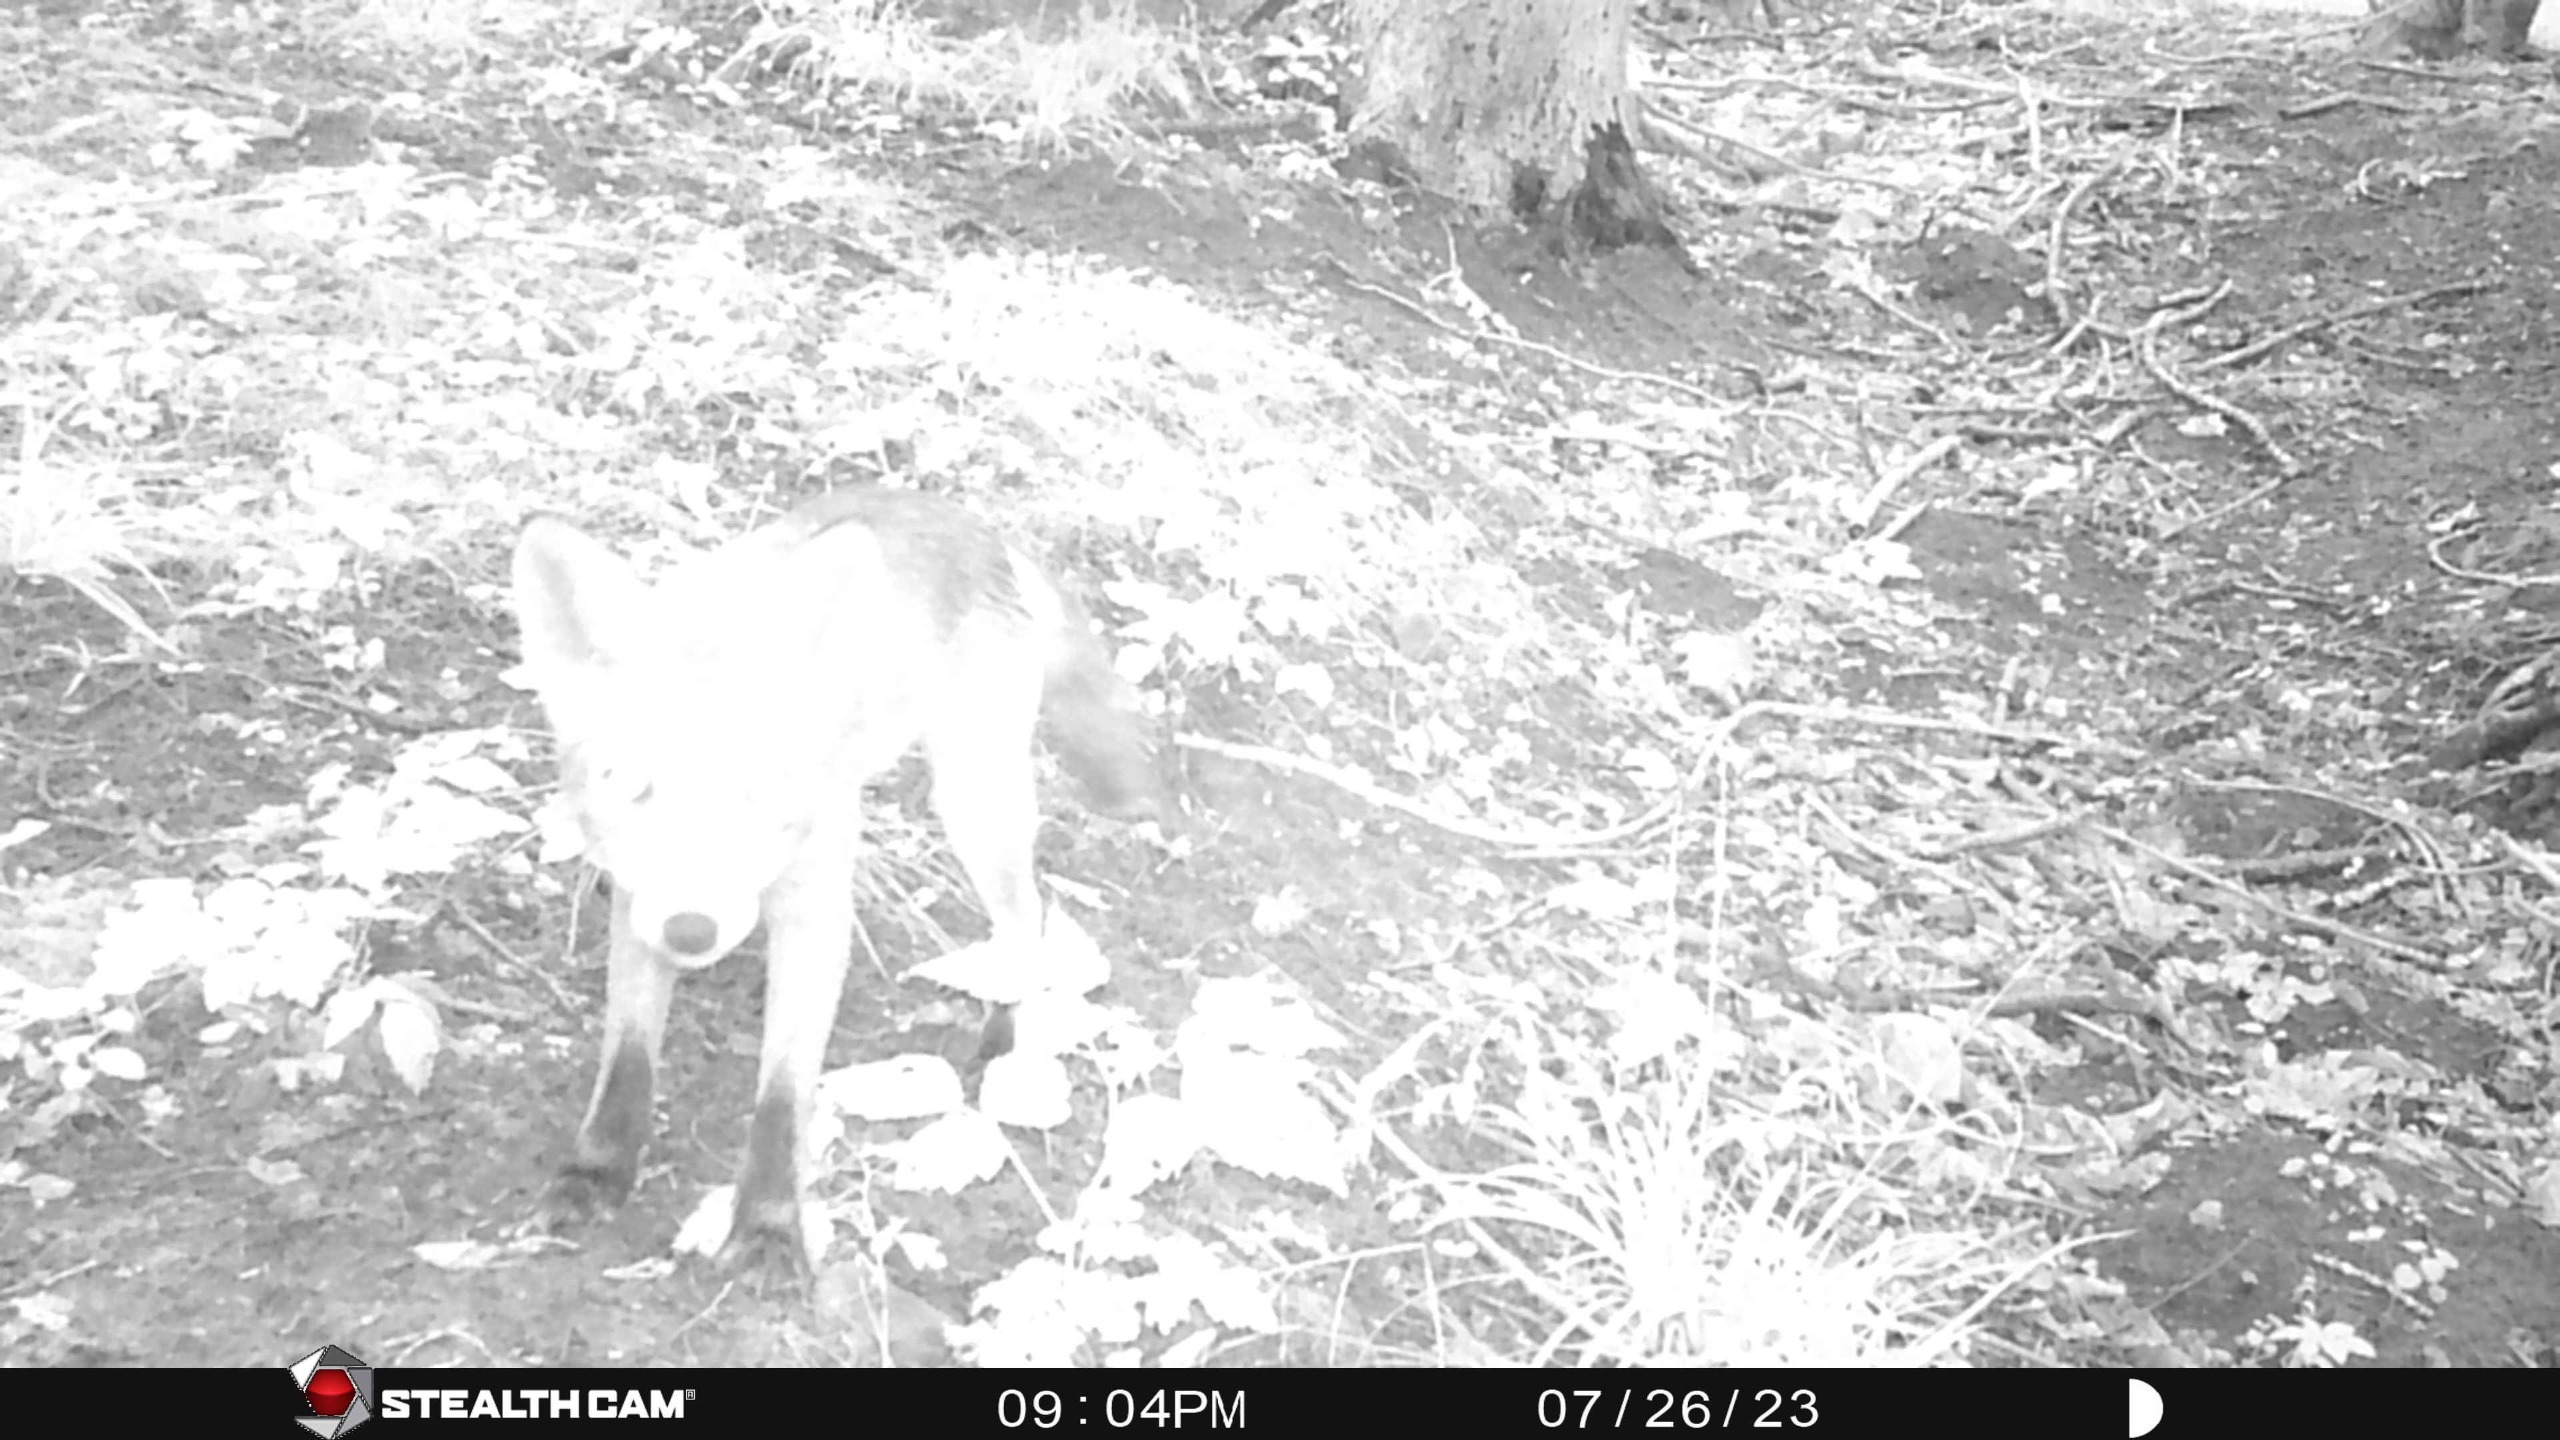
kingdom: Animalia
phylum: Chordata
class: Mammalia
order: Carnivora
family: Canidae
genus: Vulpes
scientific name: Vulpes vulpes
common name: Ræv
